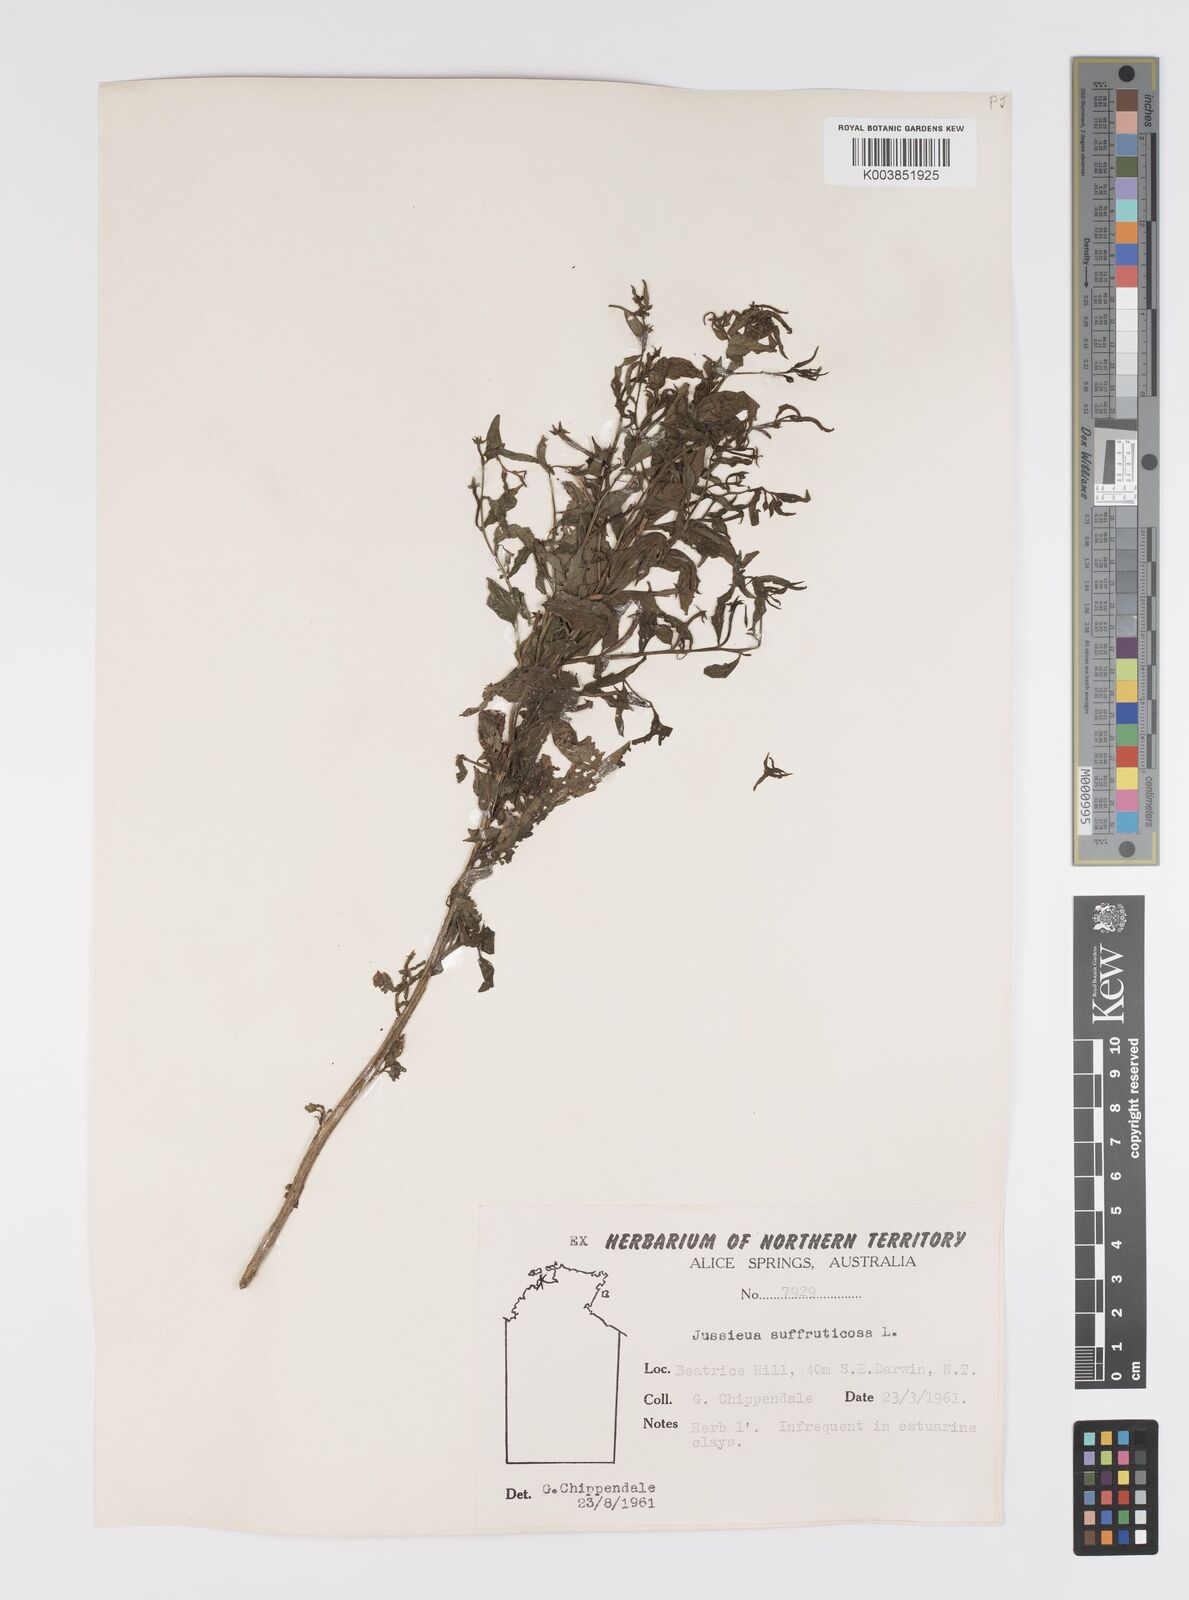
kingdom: Plantae
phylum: Tracheophyta
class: Magnoliopsida
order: Myrtales
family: Onagraceae
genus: Ludwigia
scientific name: Ludwigia octovalvis
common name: Water-primrose
